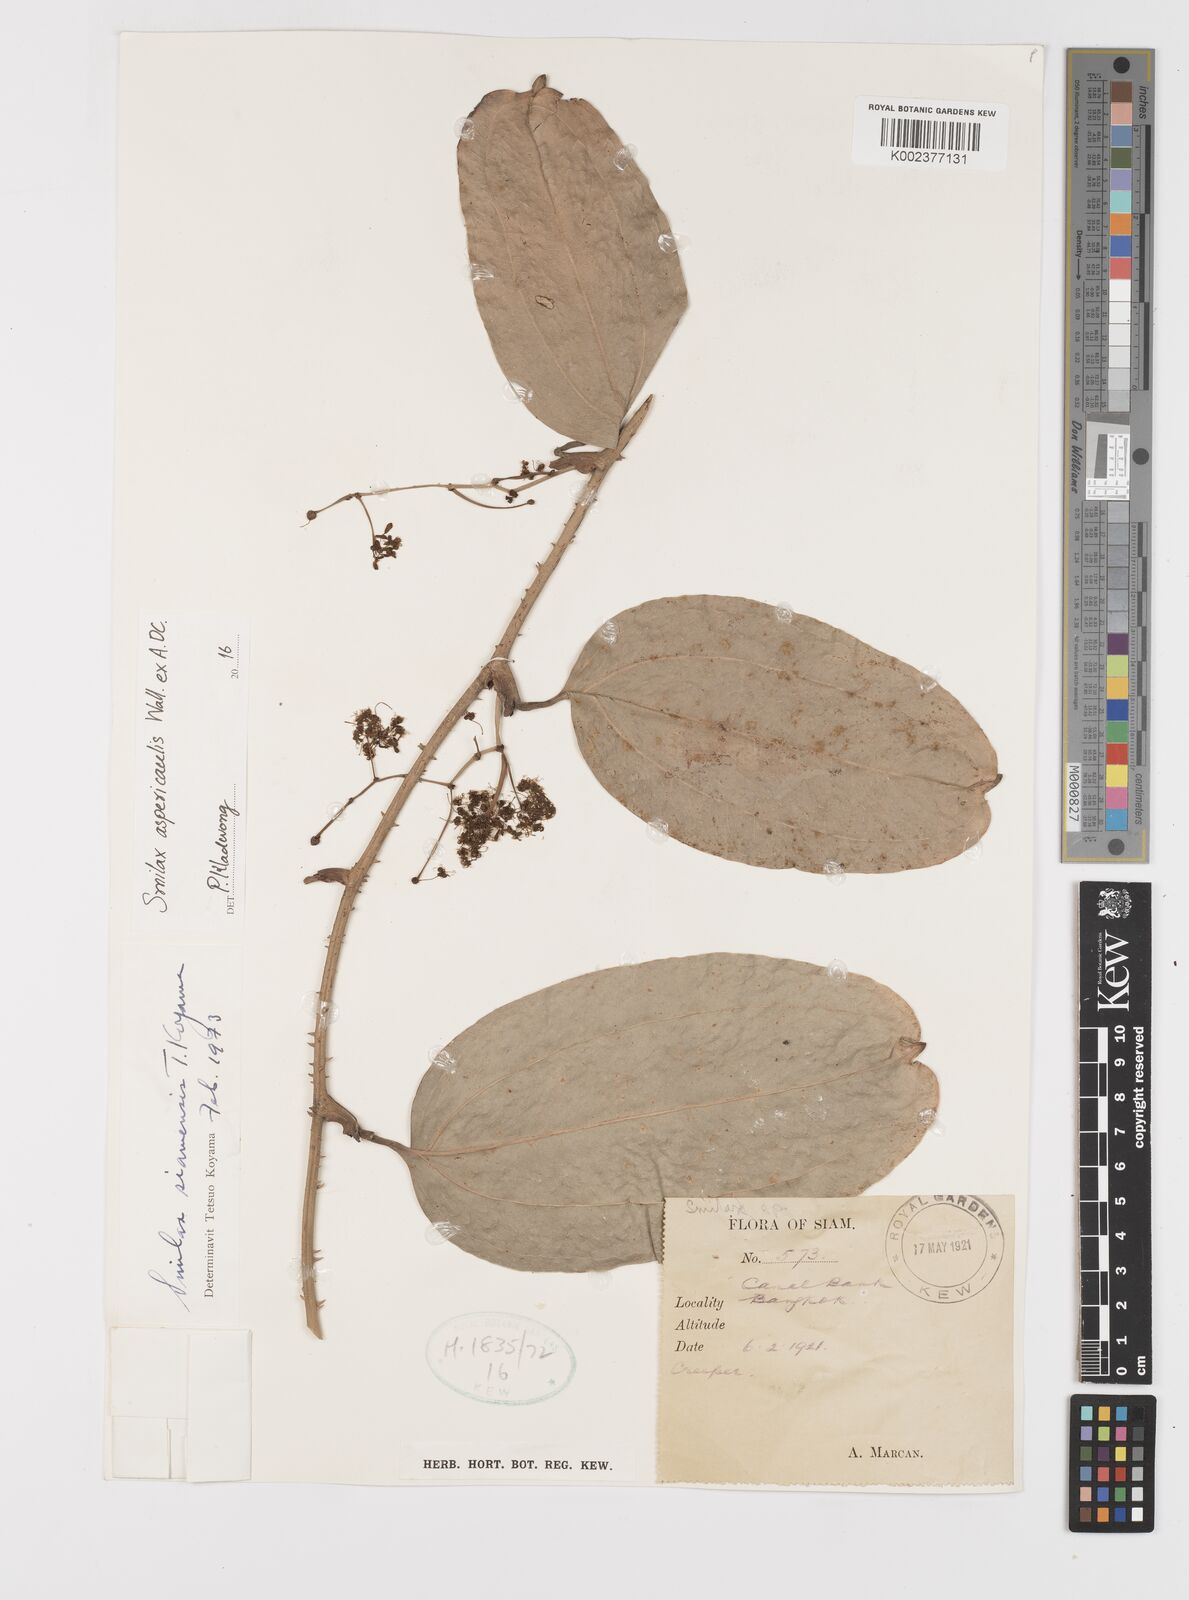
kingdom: Plantae
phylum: Tracheophyta
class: Liliopsida
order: Liliales
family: Smilacaceae
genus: Smilax
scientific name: Smilax aspericaulis
